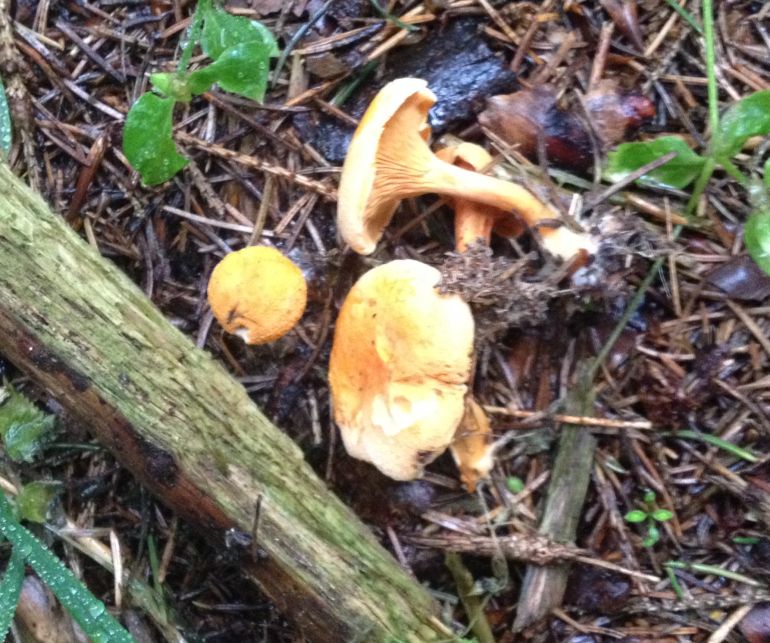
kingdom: Fungi
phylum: Basidiomycota
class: Agaricomycetes
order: Boletales
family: Hygrophoropsidaceae
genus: Hygrophoropsis
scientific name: Hygrophoropsis aurantiaca
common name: almindelig orangekantarel
